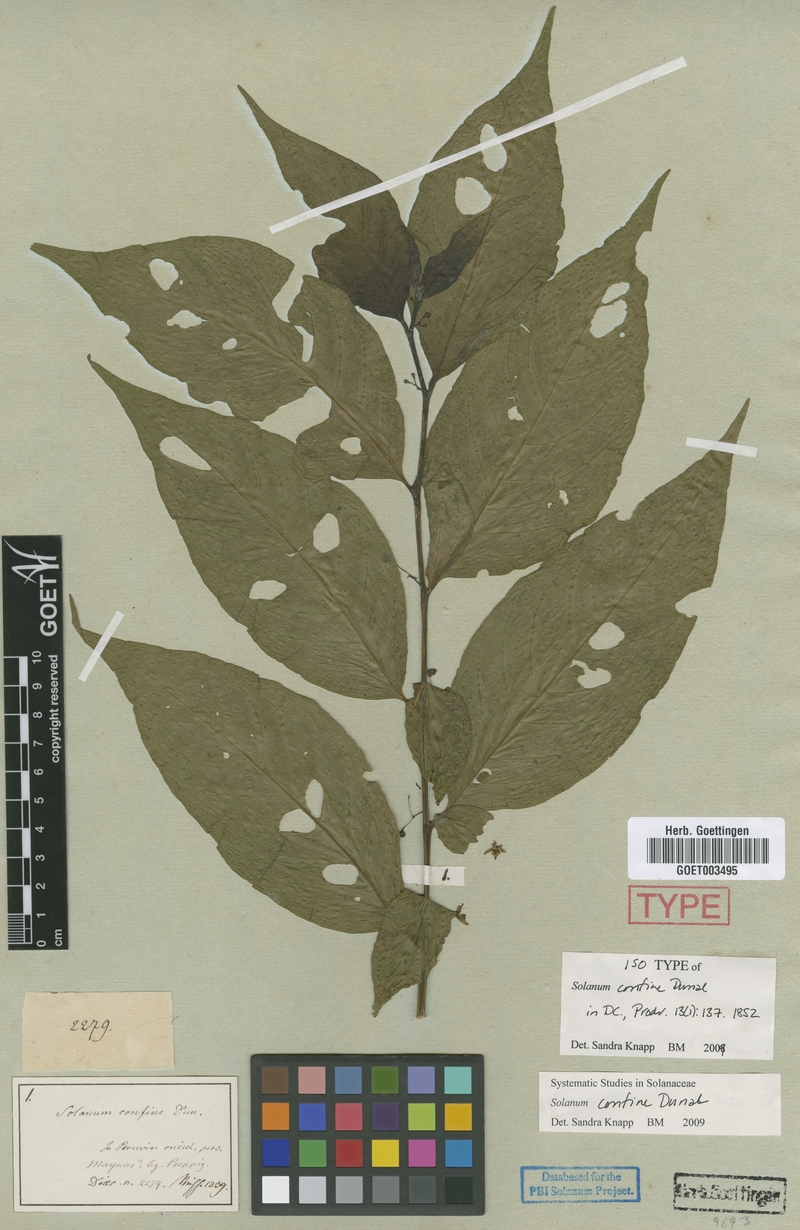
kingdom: Plantae
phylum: Tracheophyta
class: Magnoliopsida
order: Solanales
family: Solanaceae
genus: Solanum
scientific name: Solanum confine
